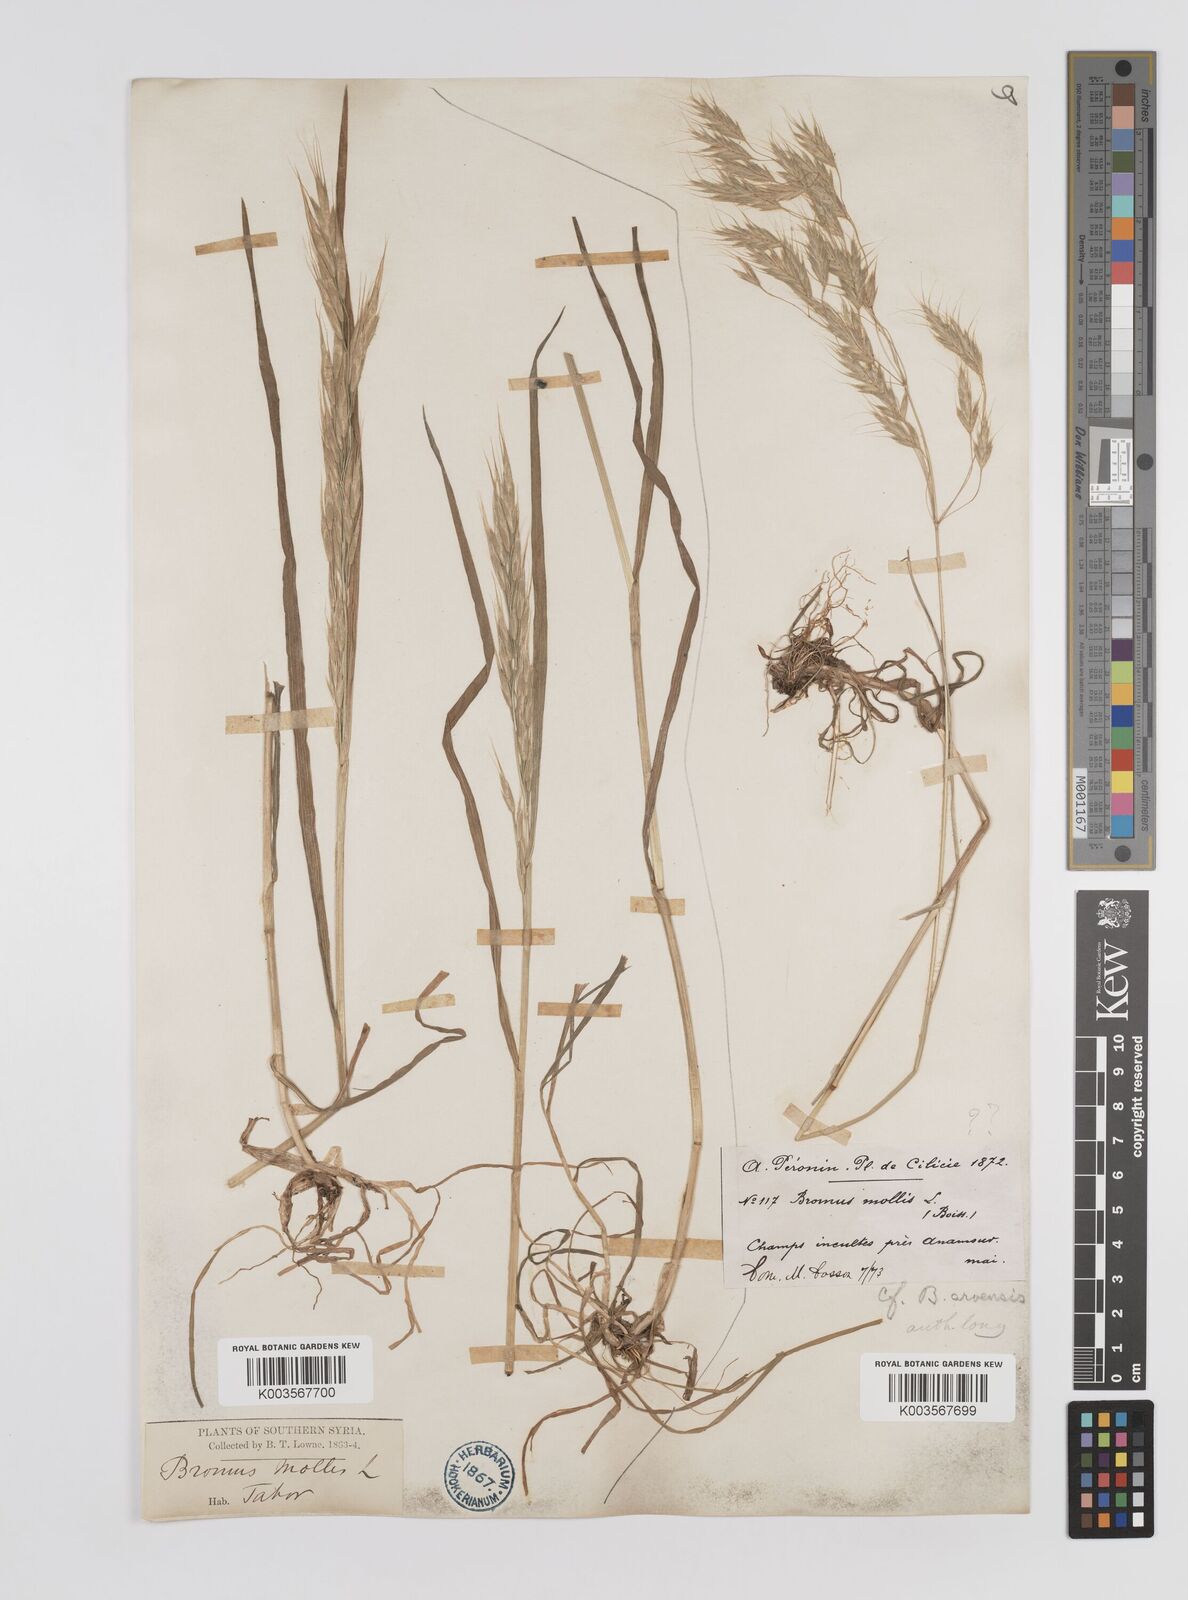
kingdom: Plantae
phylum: Tracheophyta
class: Liliopsida
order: Poales
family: Poaceae
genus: Bromus
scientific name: Bromus
